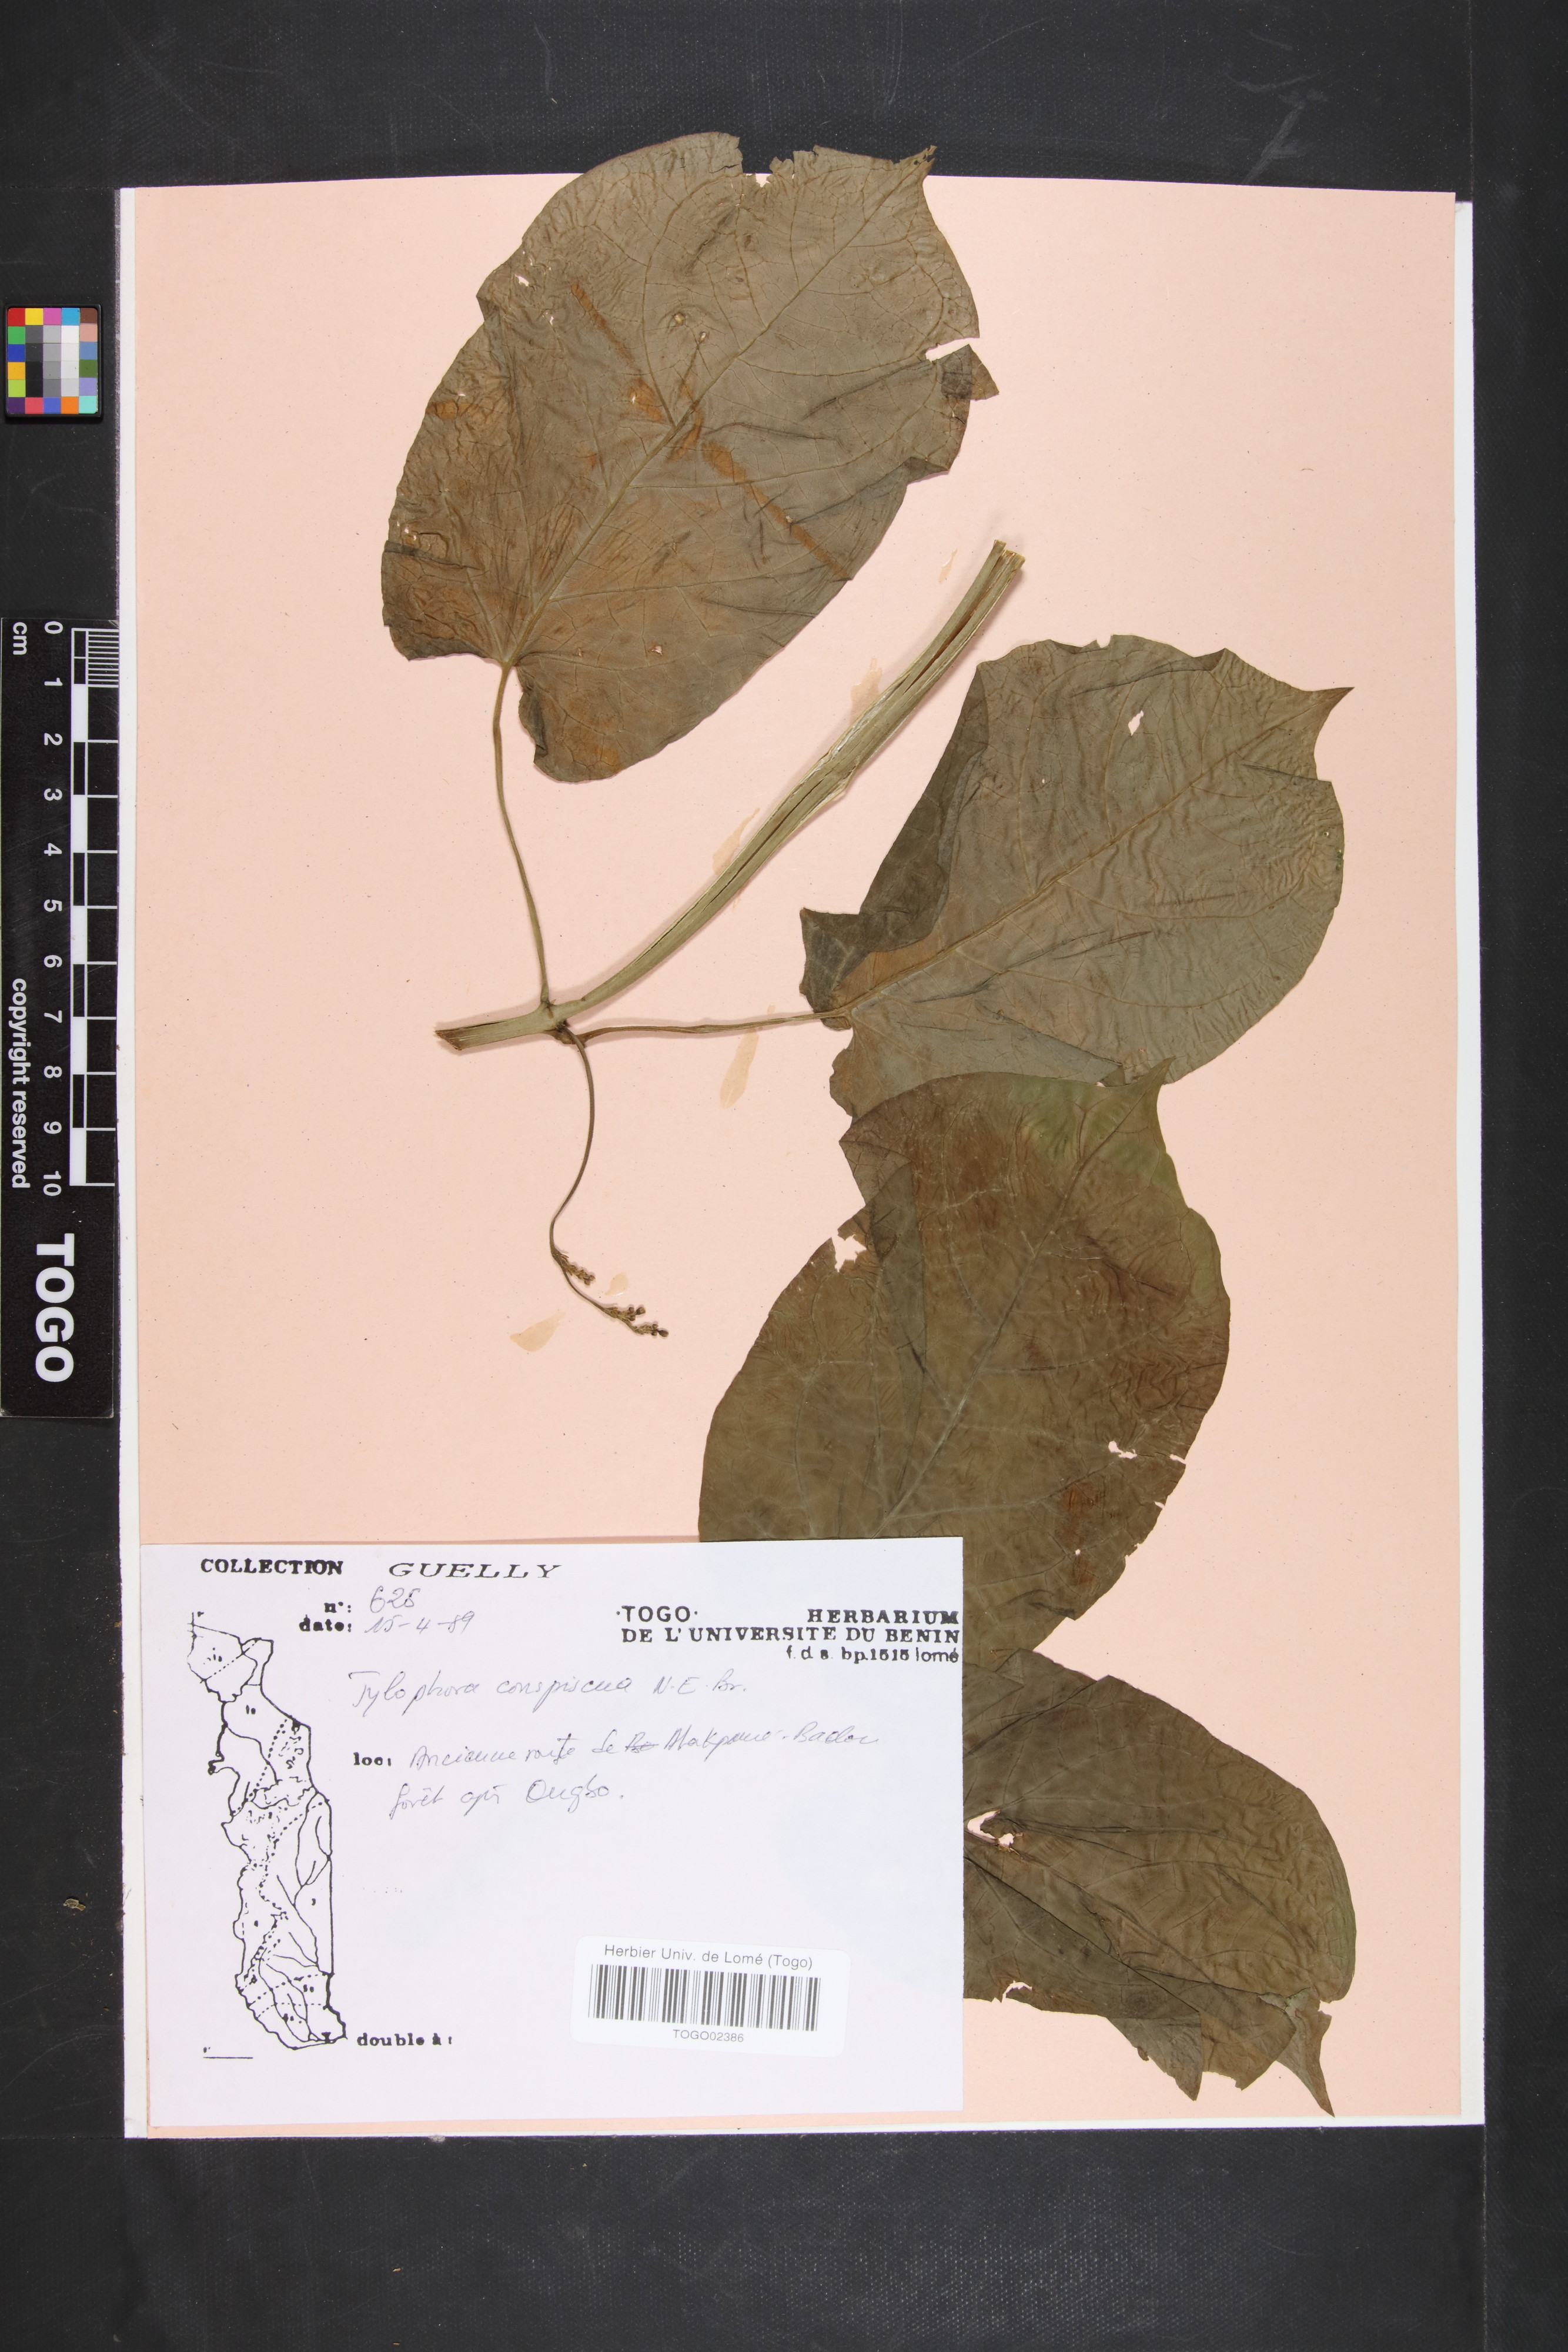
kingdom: Plantae
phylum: Tracheophyta
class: Magnoliopsida
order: Gentianales
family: Apocynaceae
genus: Vincetoxicum
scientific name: Vincetoxicum conspicuum
